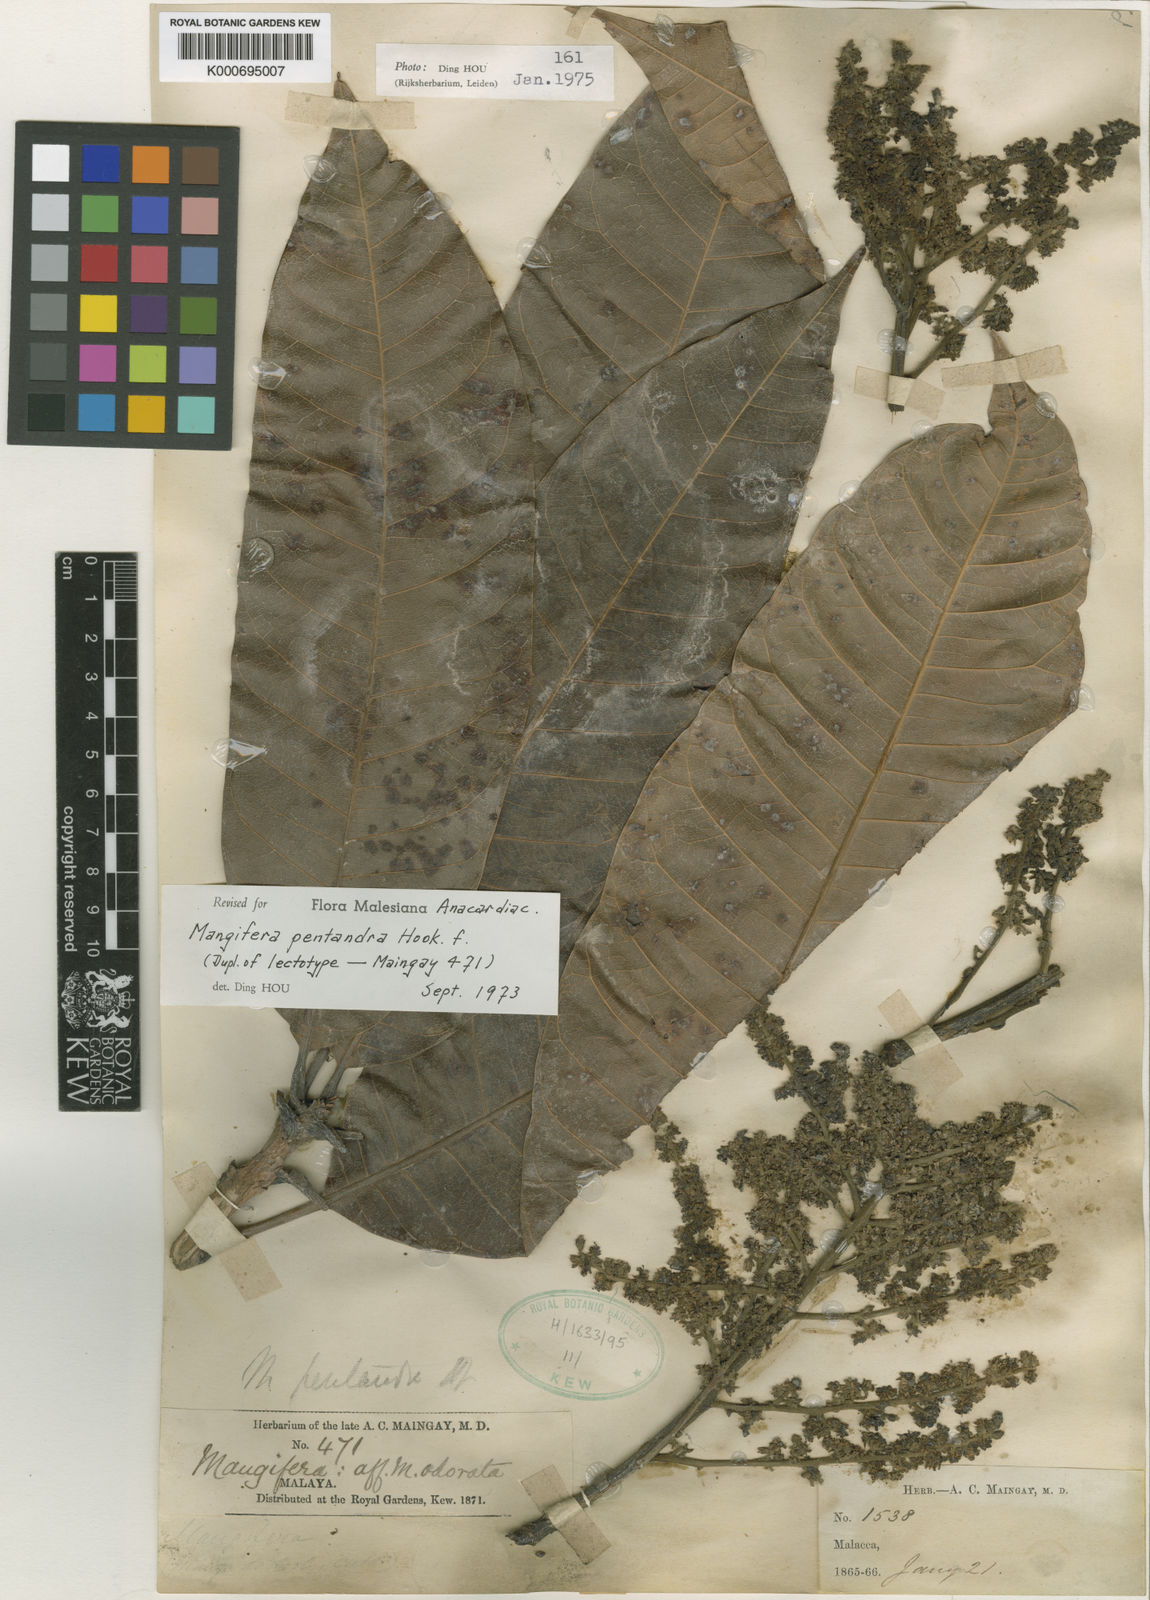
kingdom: Plantae
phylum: Tracheophyta
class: Magnoliopsida
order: Sapindales
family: Anacardiaceae
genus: Mangifera
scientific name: Mangifera pentandra
